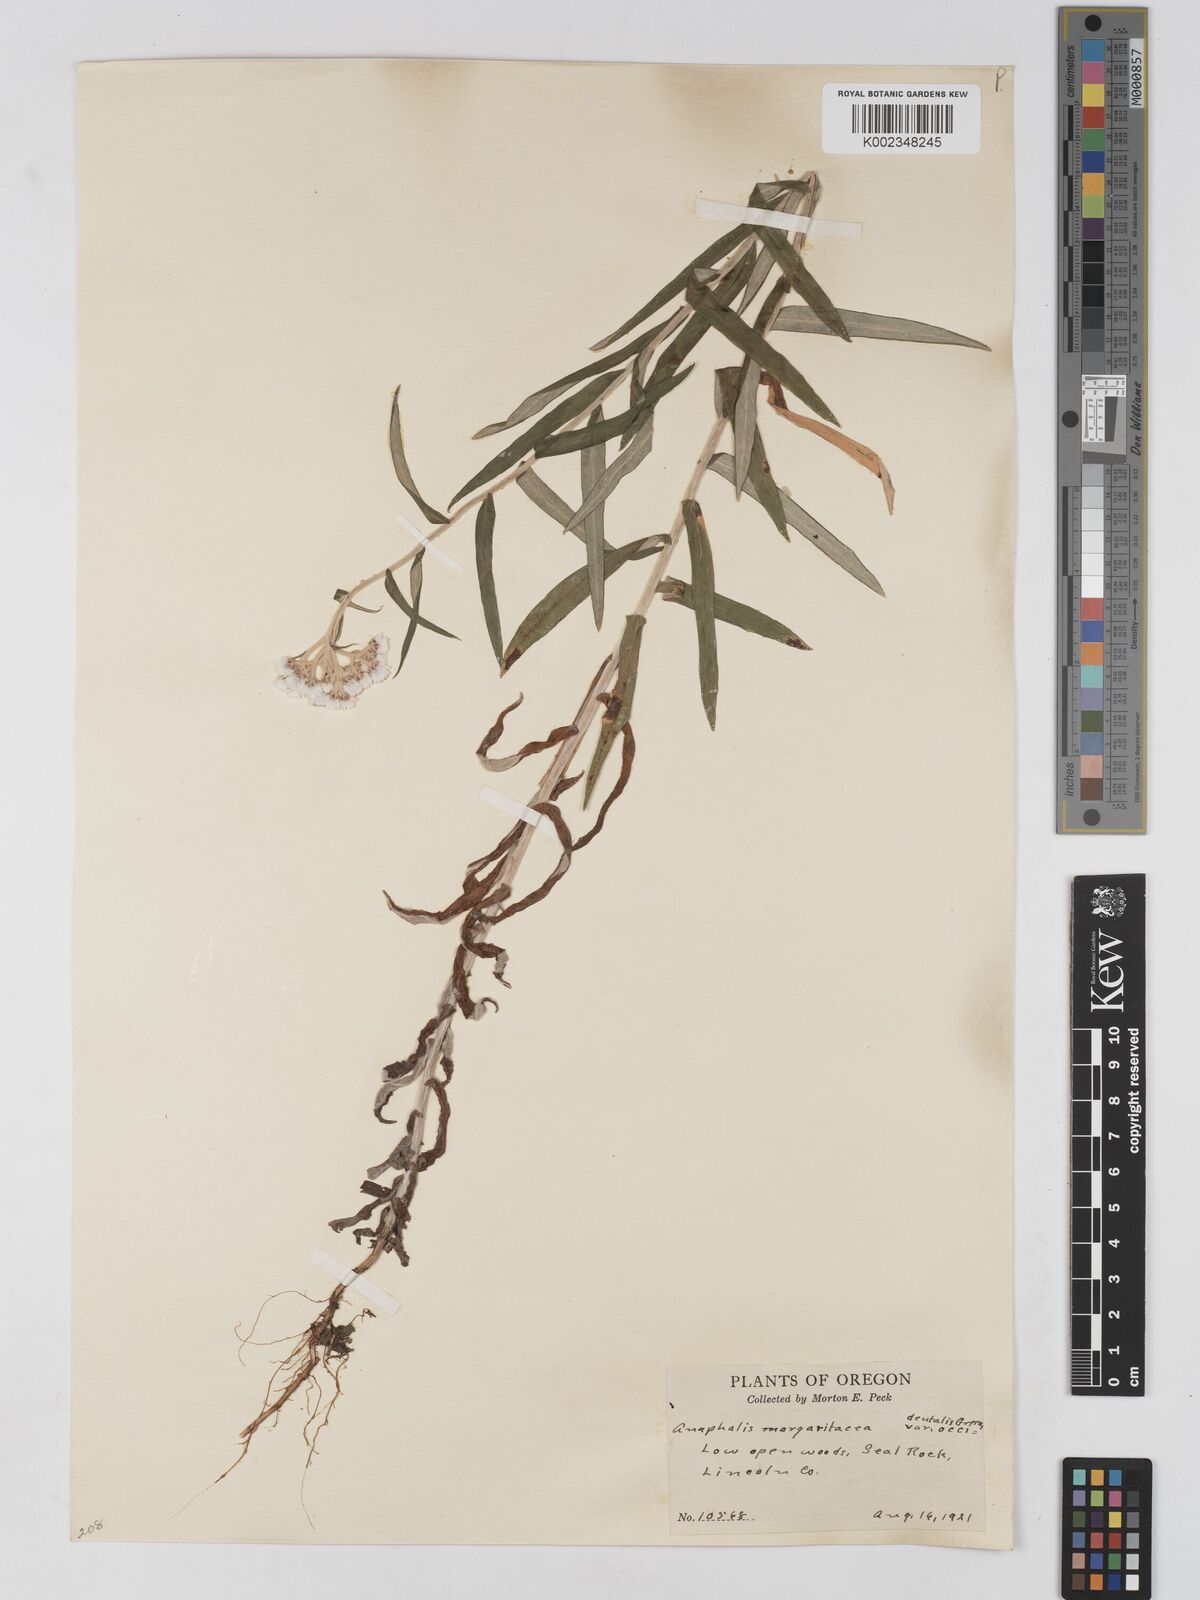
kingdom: Plantae
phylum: Tracheophyta
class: Magnoliopsida
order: Asterales
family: Asteraceae
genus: Anaphalis
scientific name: Anaphalis margaritacea
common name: Pearly everlasting
